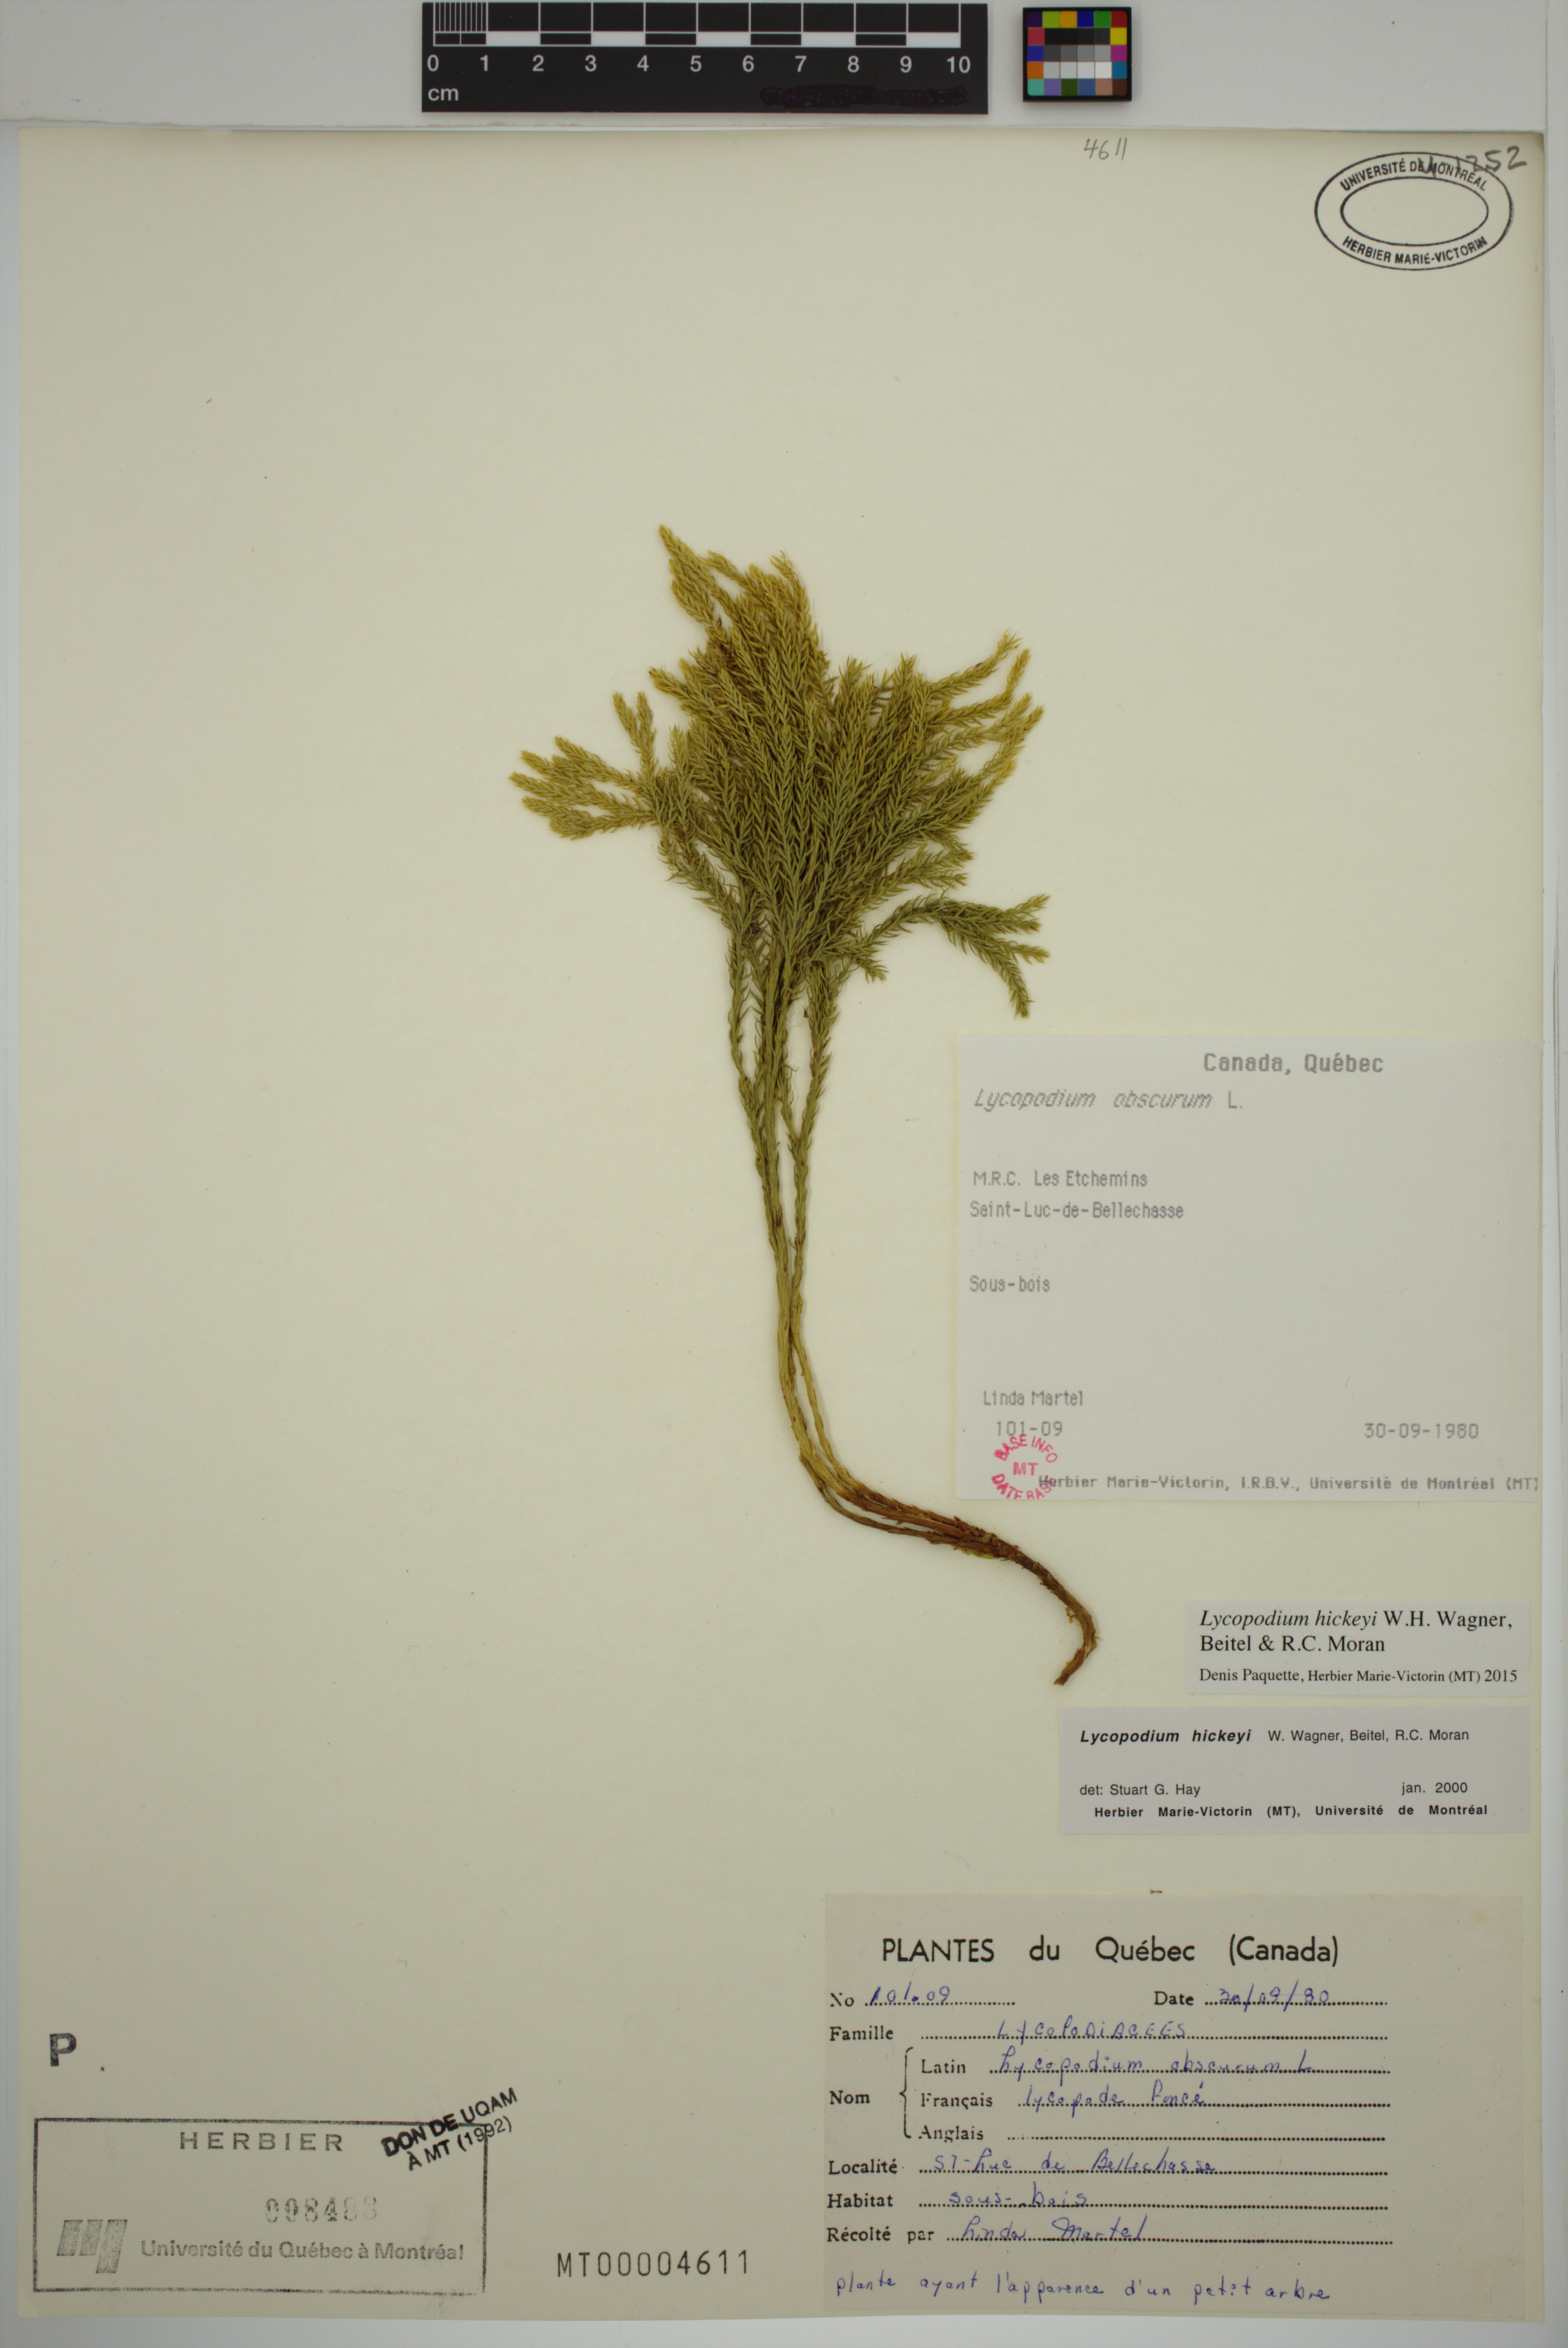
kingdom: Plantae
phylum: Tracheophyta
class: Lycopodiopsida
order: Lycopodiales
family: Lycopodiaceae
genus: Dendrolycopodium
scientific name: Dendrolycopodium hickeyi
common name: Hickey's clubmoss
